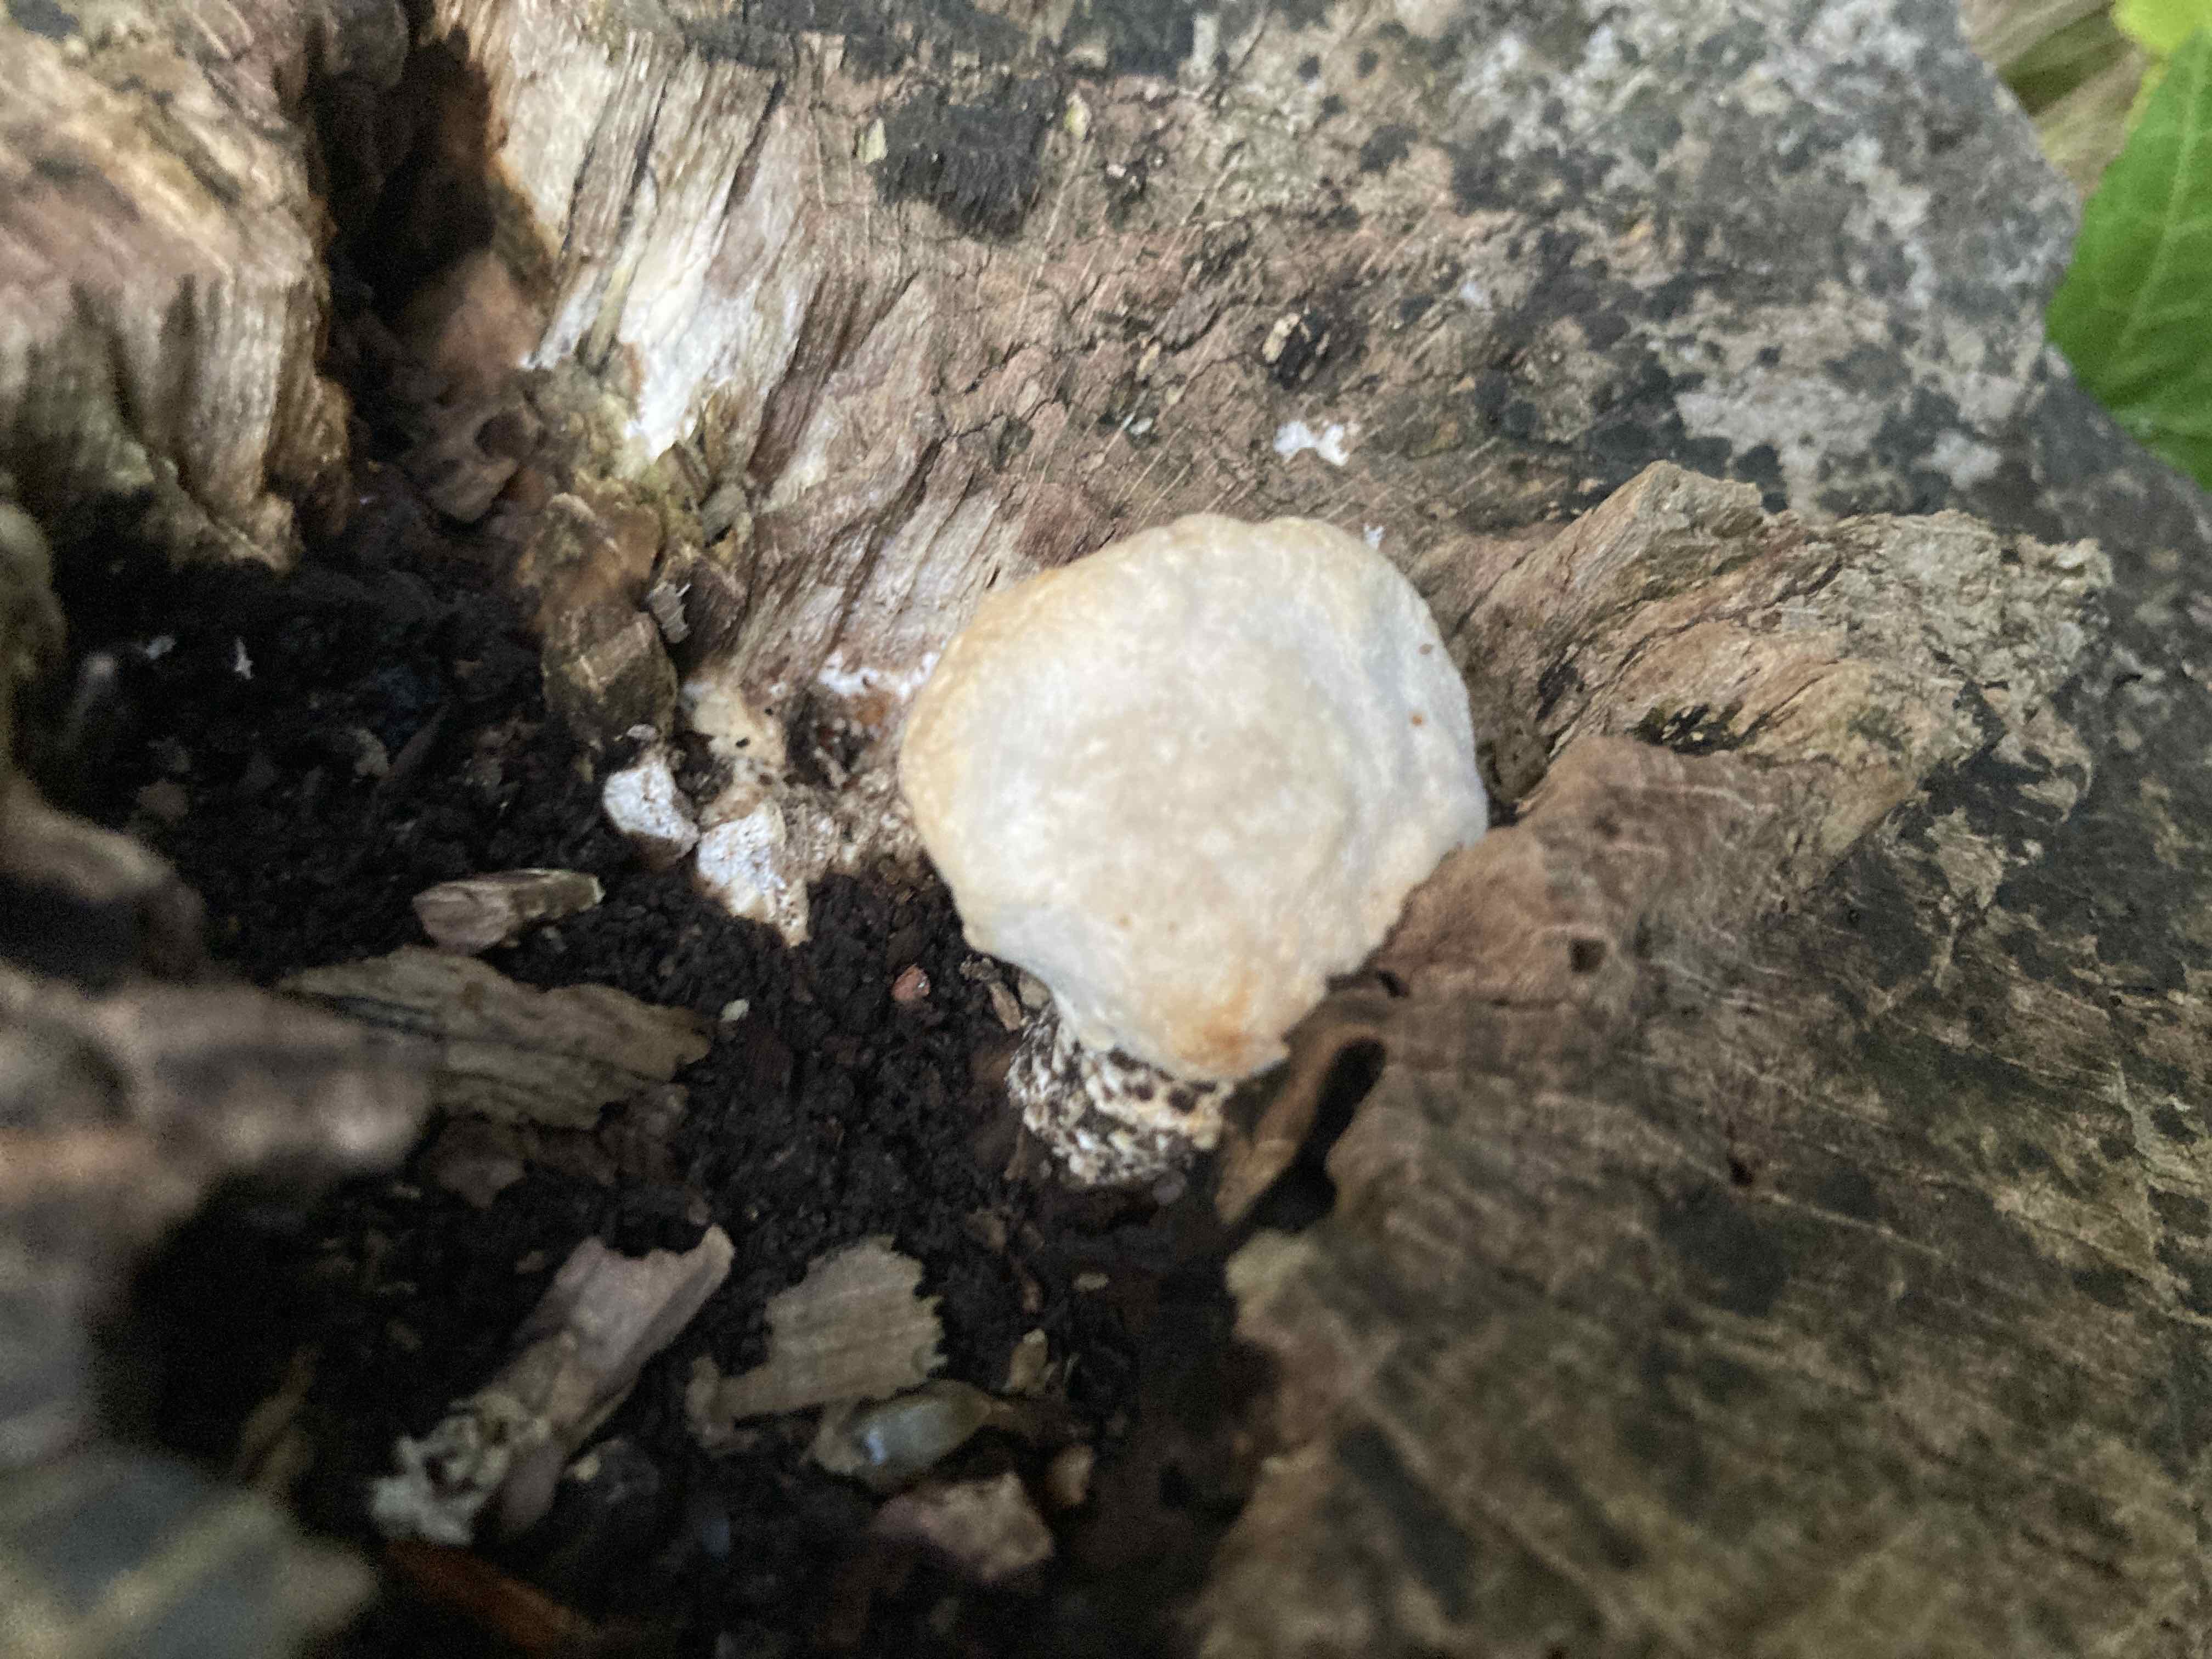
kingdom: Fungi
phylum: Basidiomycota
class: Agaricomycetes
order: Polyporales
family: Polyporaceae
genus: Trametes
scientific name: Trametes gibbosa
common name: puklet læderporesvamp
